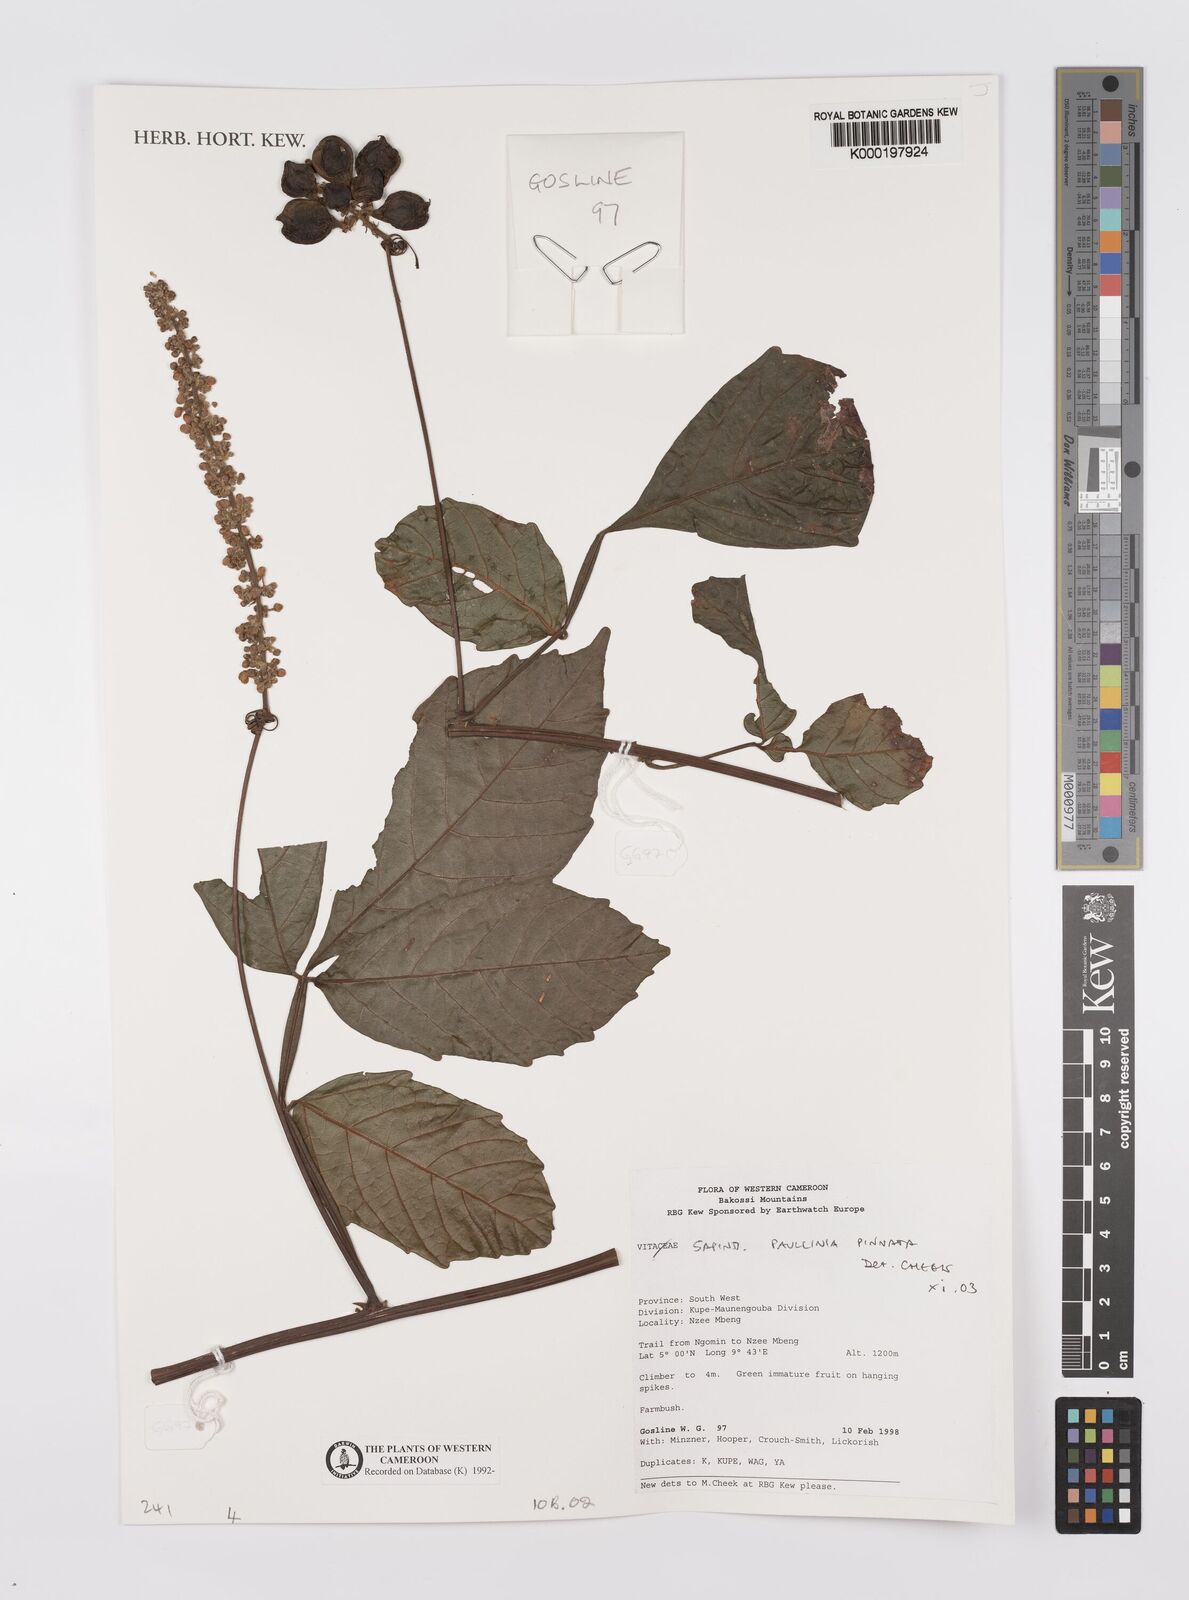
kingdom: Plantae
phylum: Tracheophyta
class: Magnoliopsida
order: Sapindales
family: Sapindaceae
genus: Paullinia
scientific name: Paullinia pinnata
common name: Barbasco
